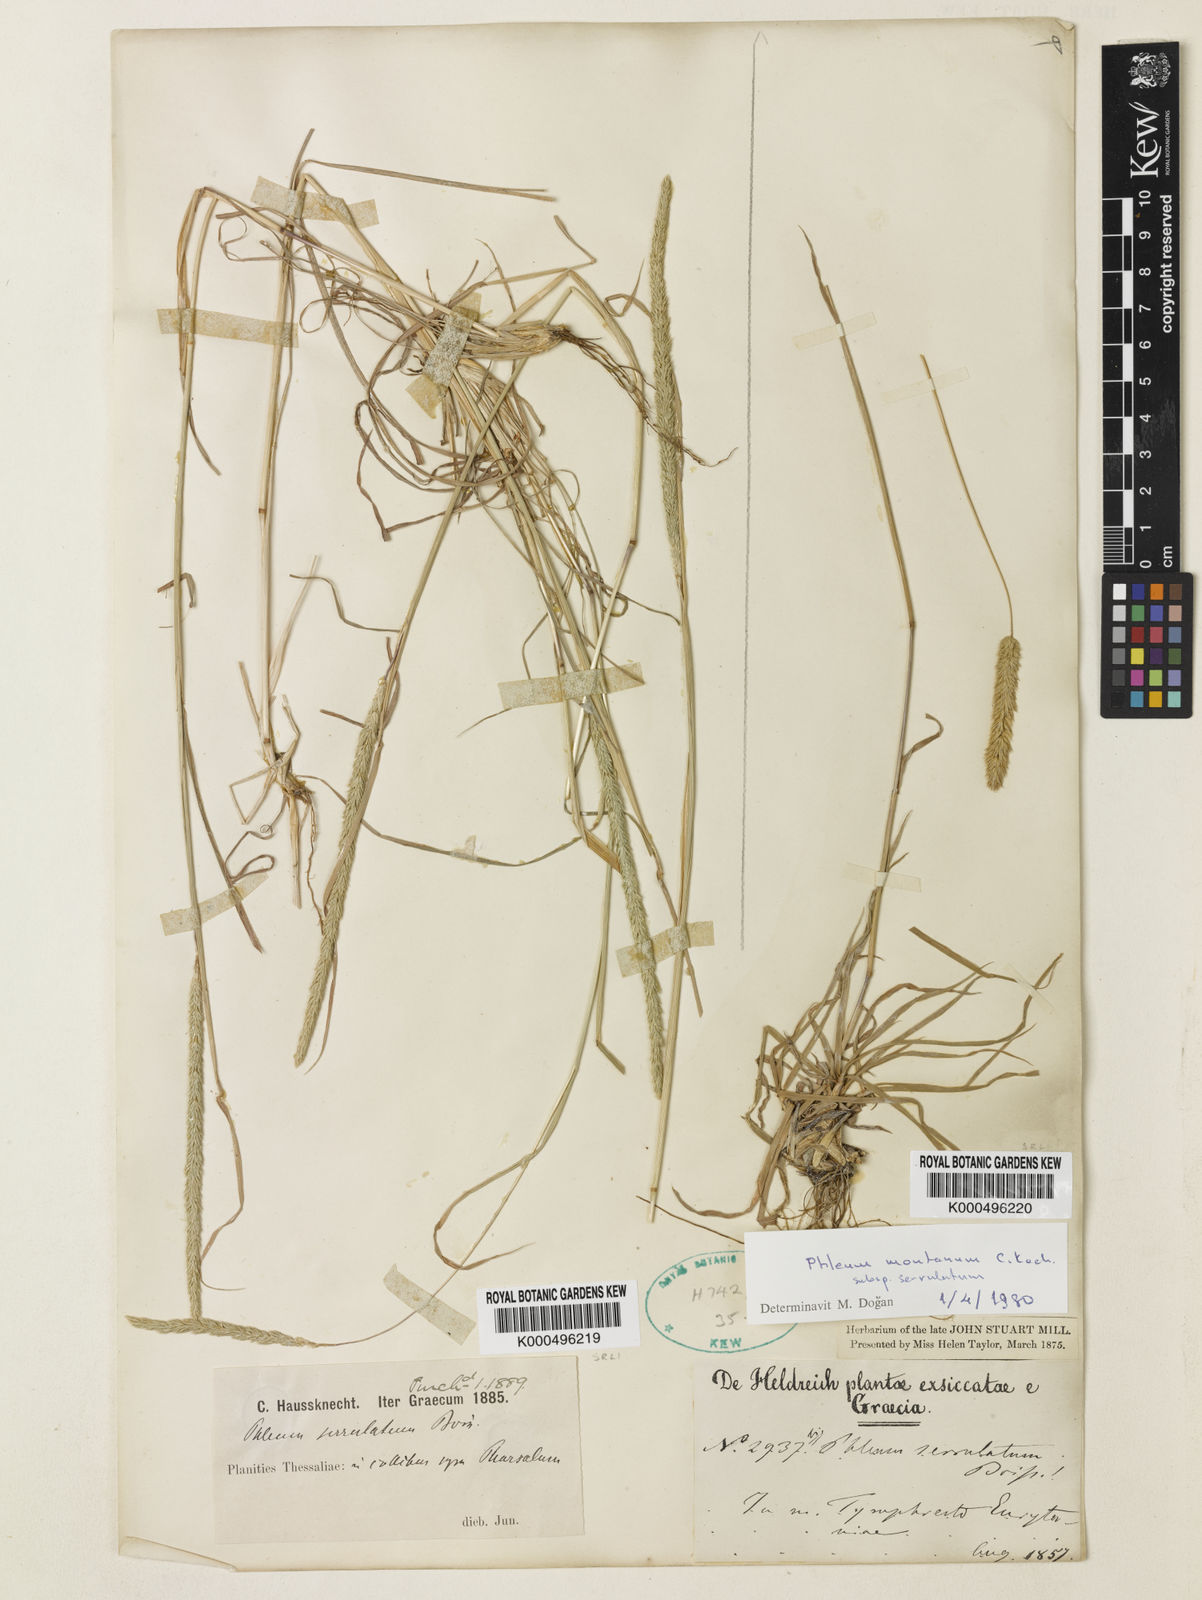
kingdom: Plantae
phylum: Tracheophyta
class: Liliopsida
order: Poales
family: Poaceae
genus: Phleum
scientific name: Phleum montanum
